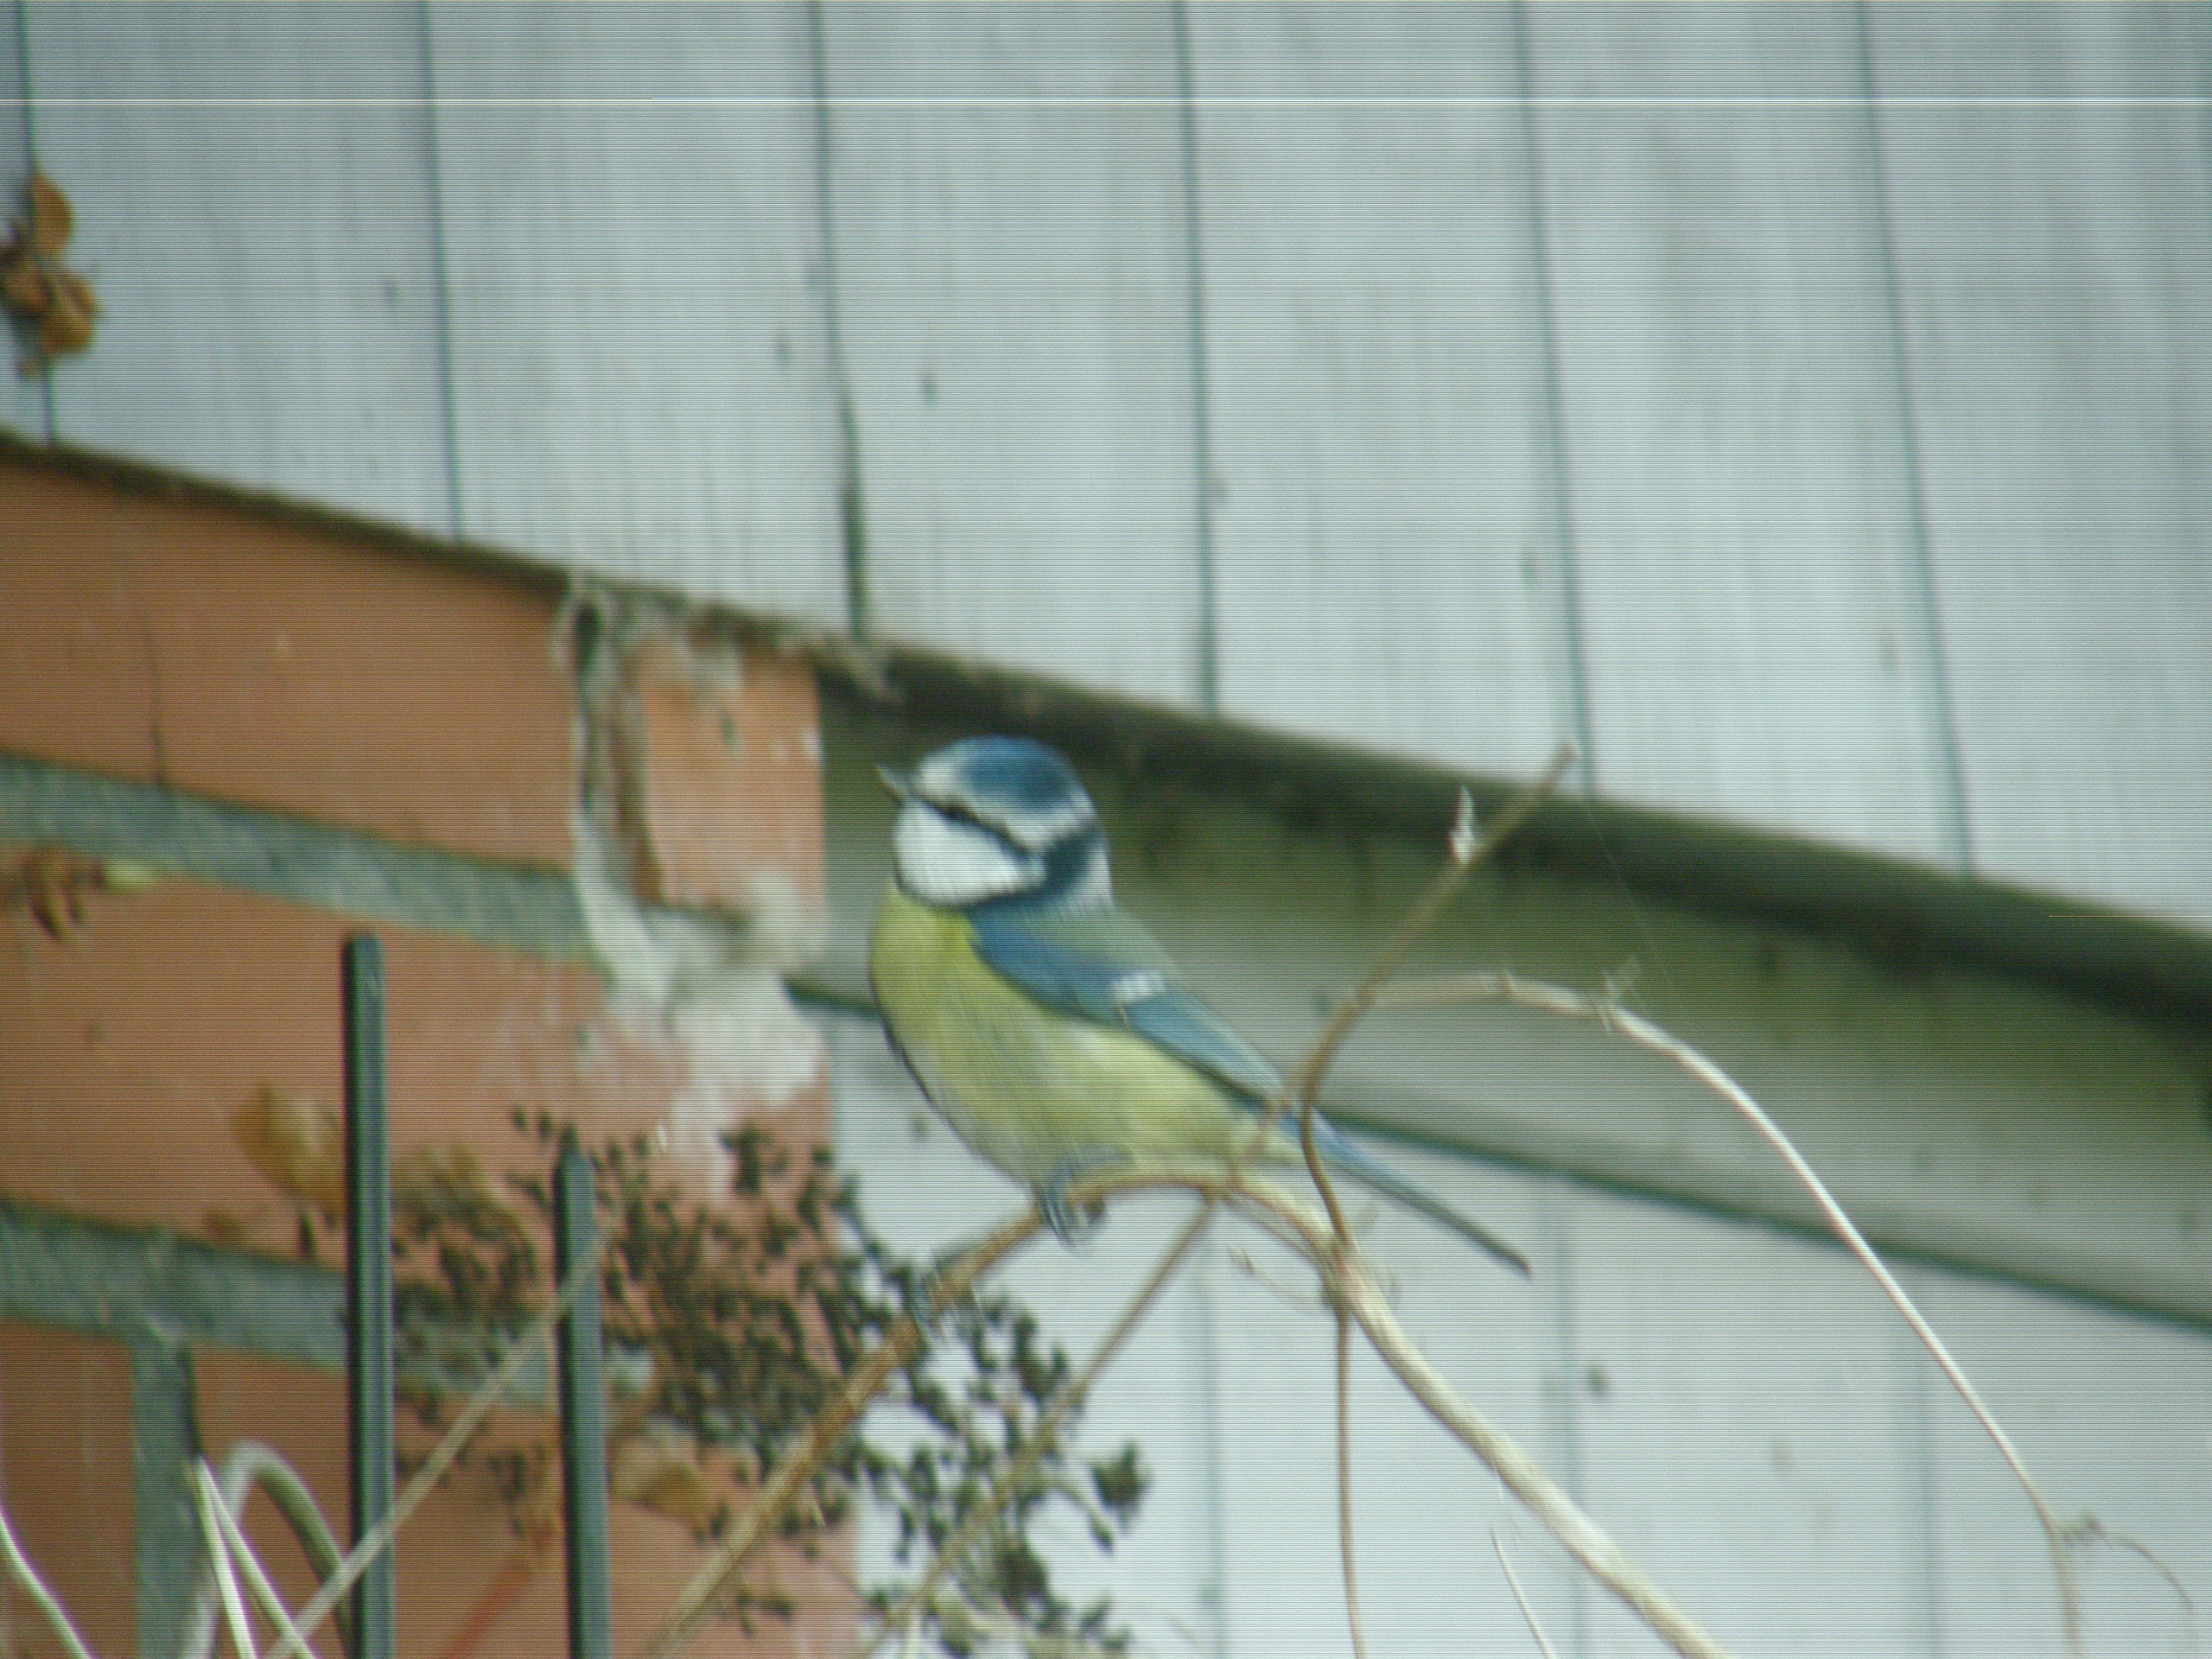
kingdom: Animalia
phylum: Chordata
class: Aves
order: Passeriformes
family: Paridae
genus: Cyanistes
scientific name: Cyanistes caeruleus
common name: Blåmejse
